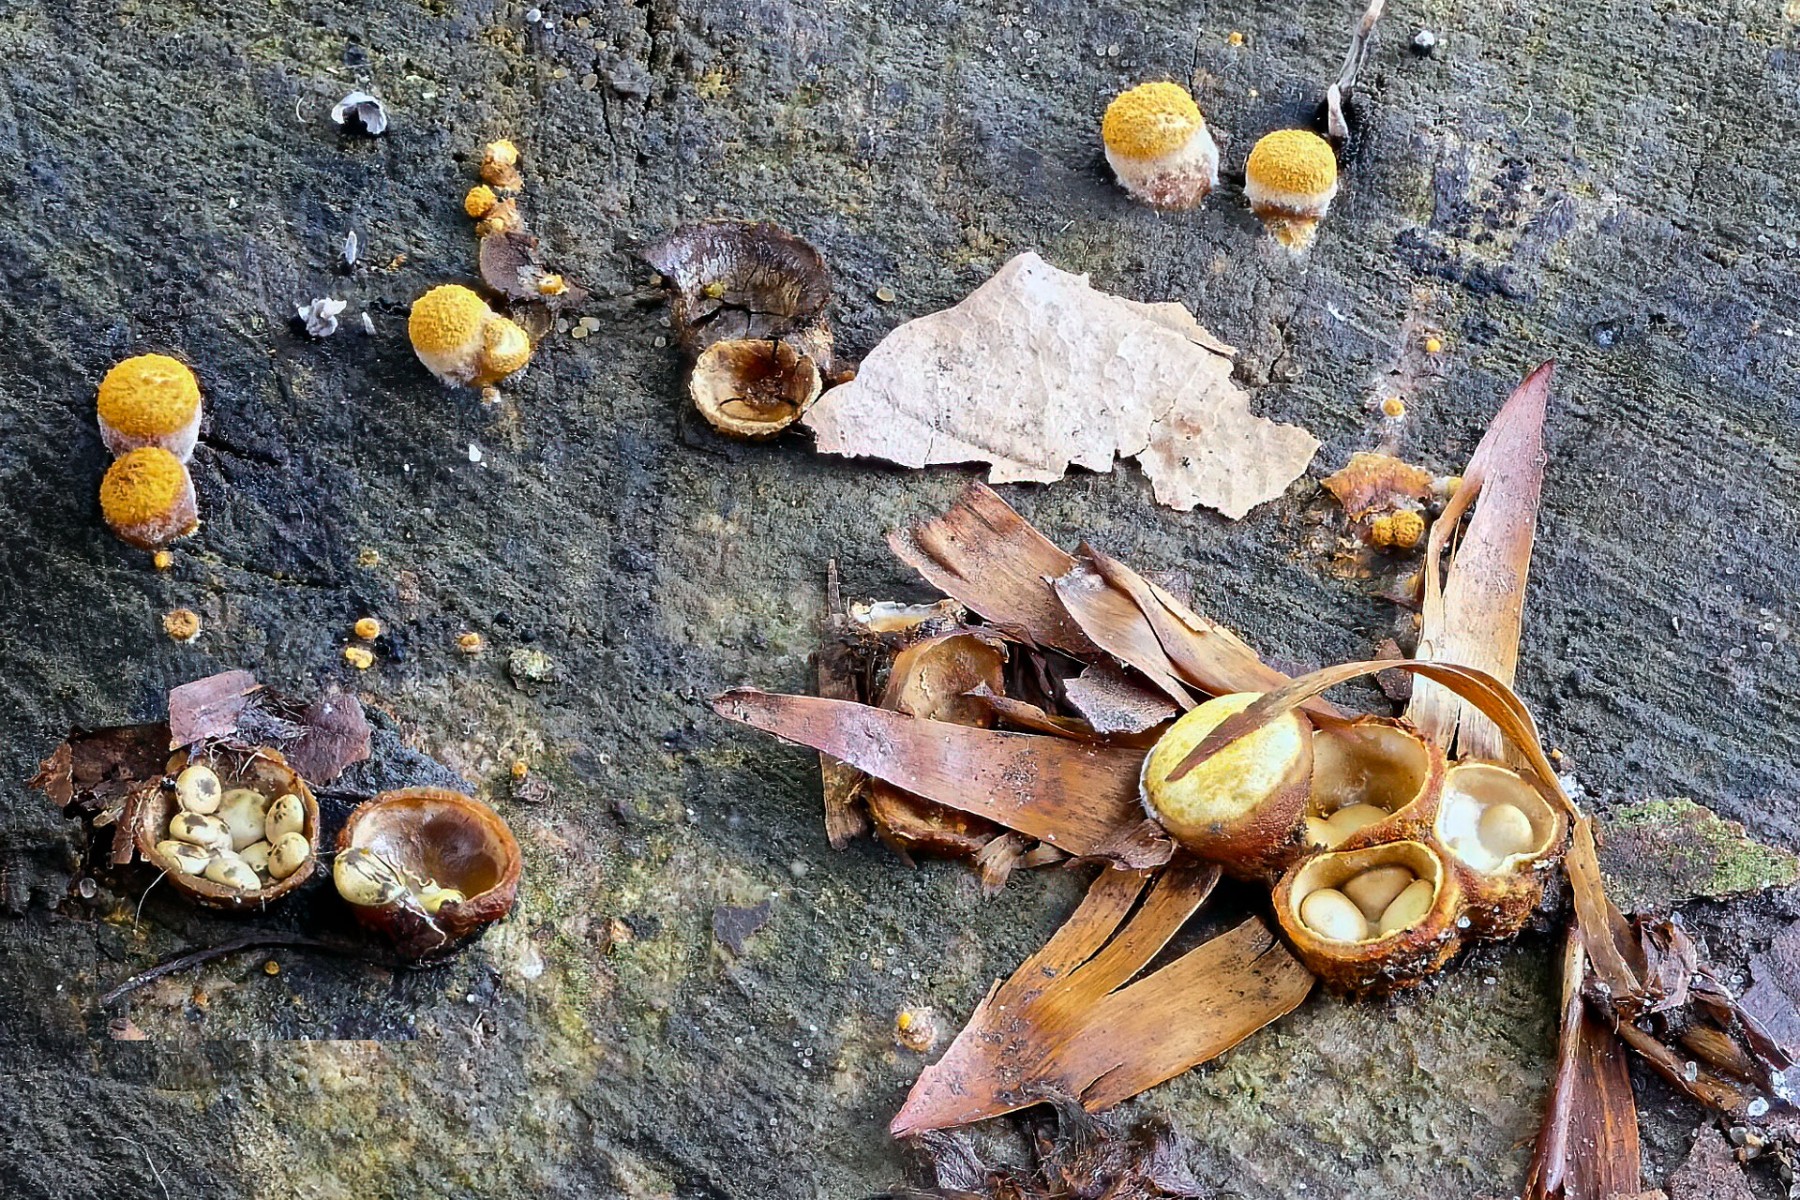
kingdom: Fungi
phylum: Basidiomycota
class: Agaricomycetes
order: Agaricales
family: Nidulariaceae
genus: Crucibulum
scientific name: Crucibulum crucibuliforme
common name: krukkesvamp
